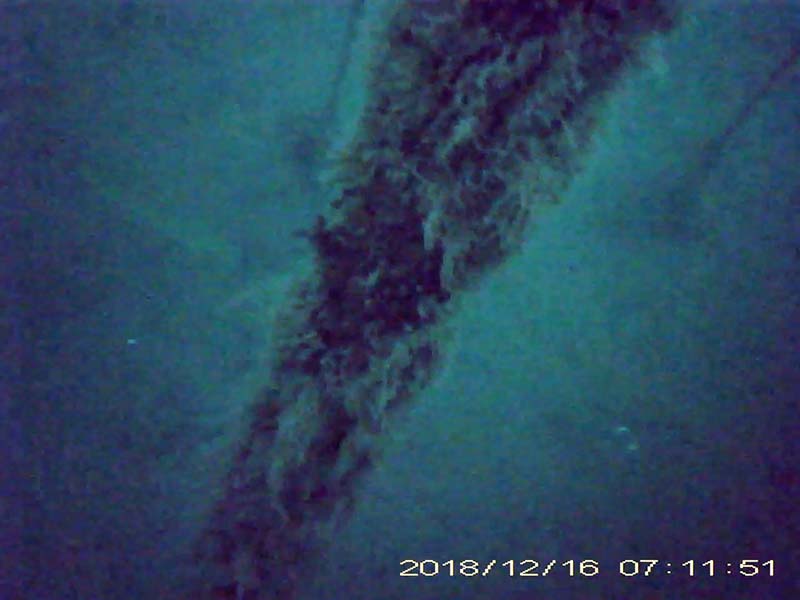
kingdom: Animalia
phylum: Chordata
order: Perciformes
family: Centrarchidae
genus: Micropterus
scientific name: Micropterus salmoides
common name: オオクチバス
